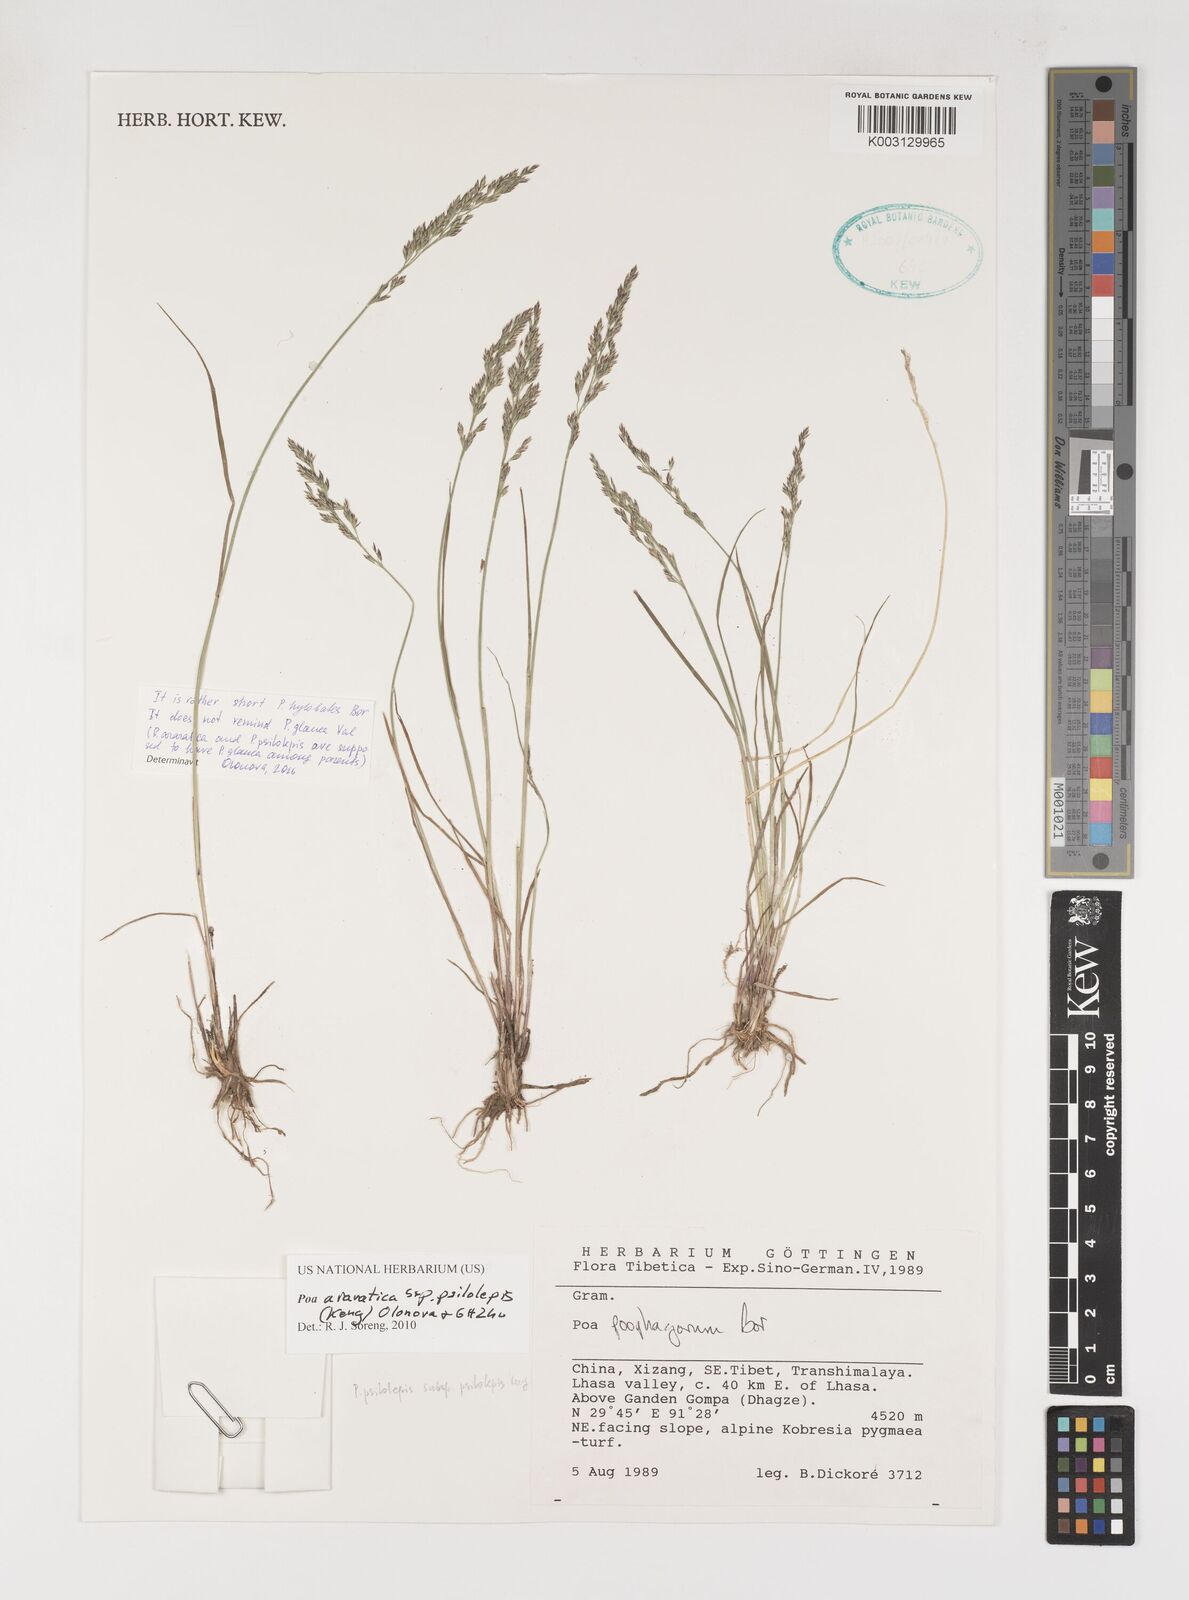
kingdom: Plantae
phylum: Tracheophyta
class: Liliopsida
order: Poales
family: Poaceae
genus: Poa
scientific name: Poa araratica
